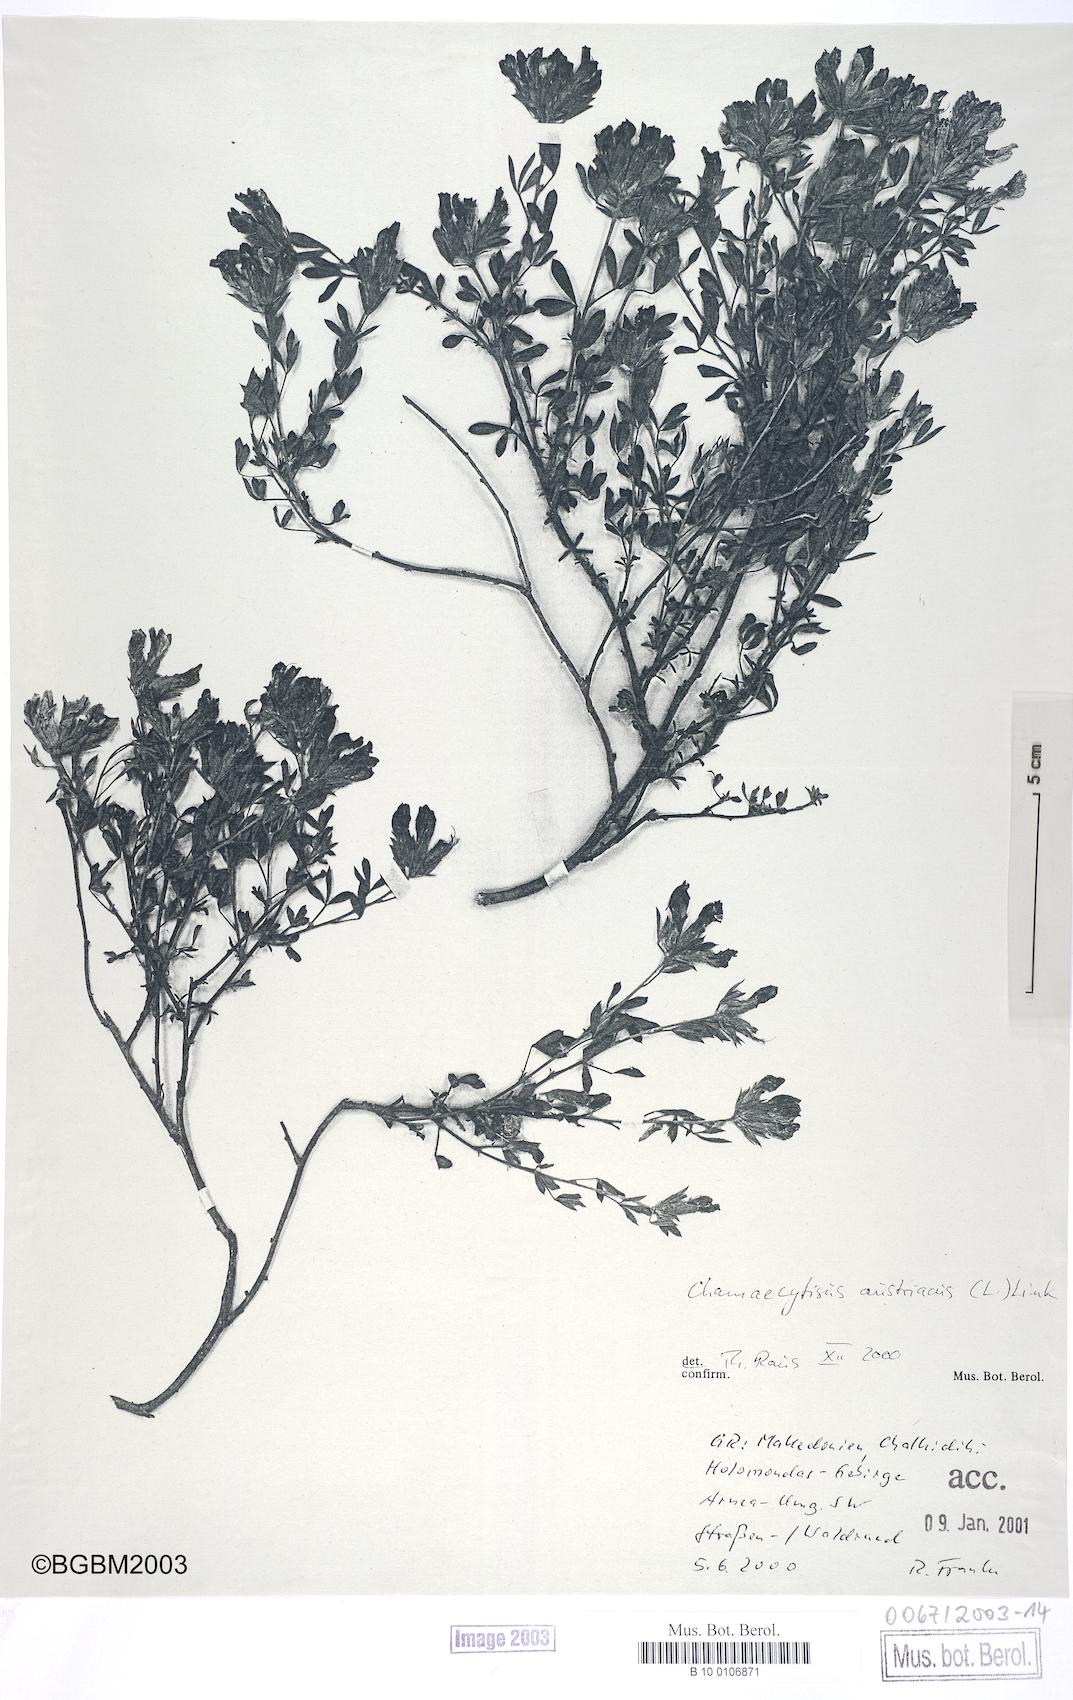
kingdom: Plantae
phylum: Tracheophyta
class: Magnoliopsida
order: Fabales
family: Fabaceae
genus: Chamaecytisus
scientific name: Chamaecytisus austriacus
